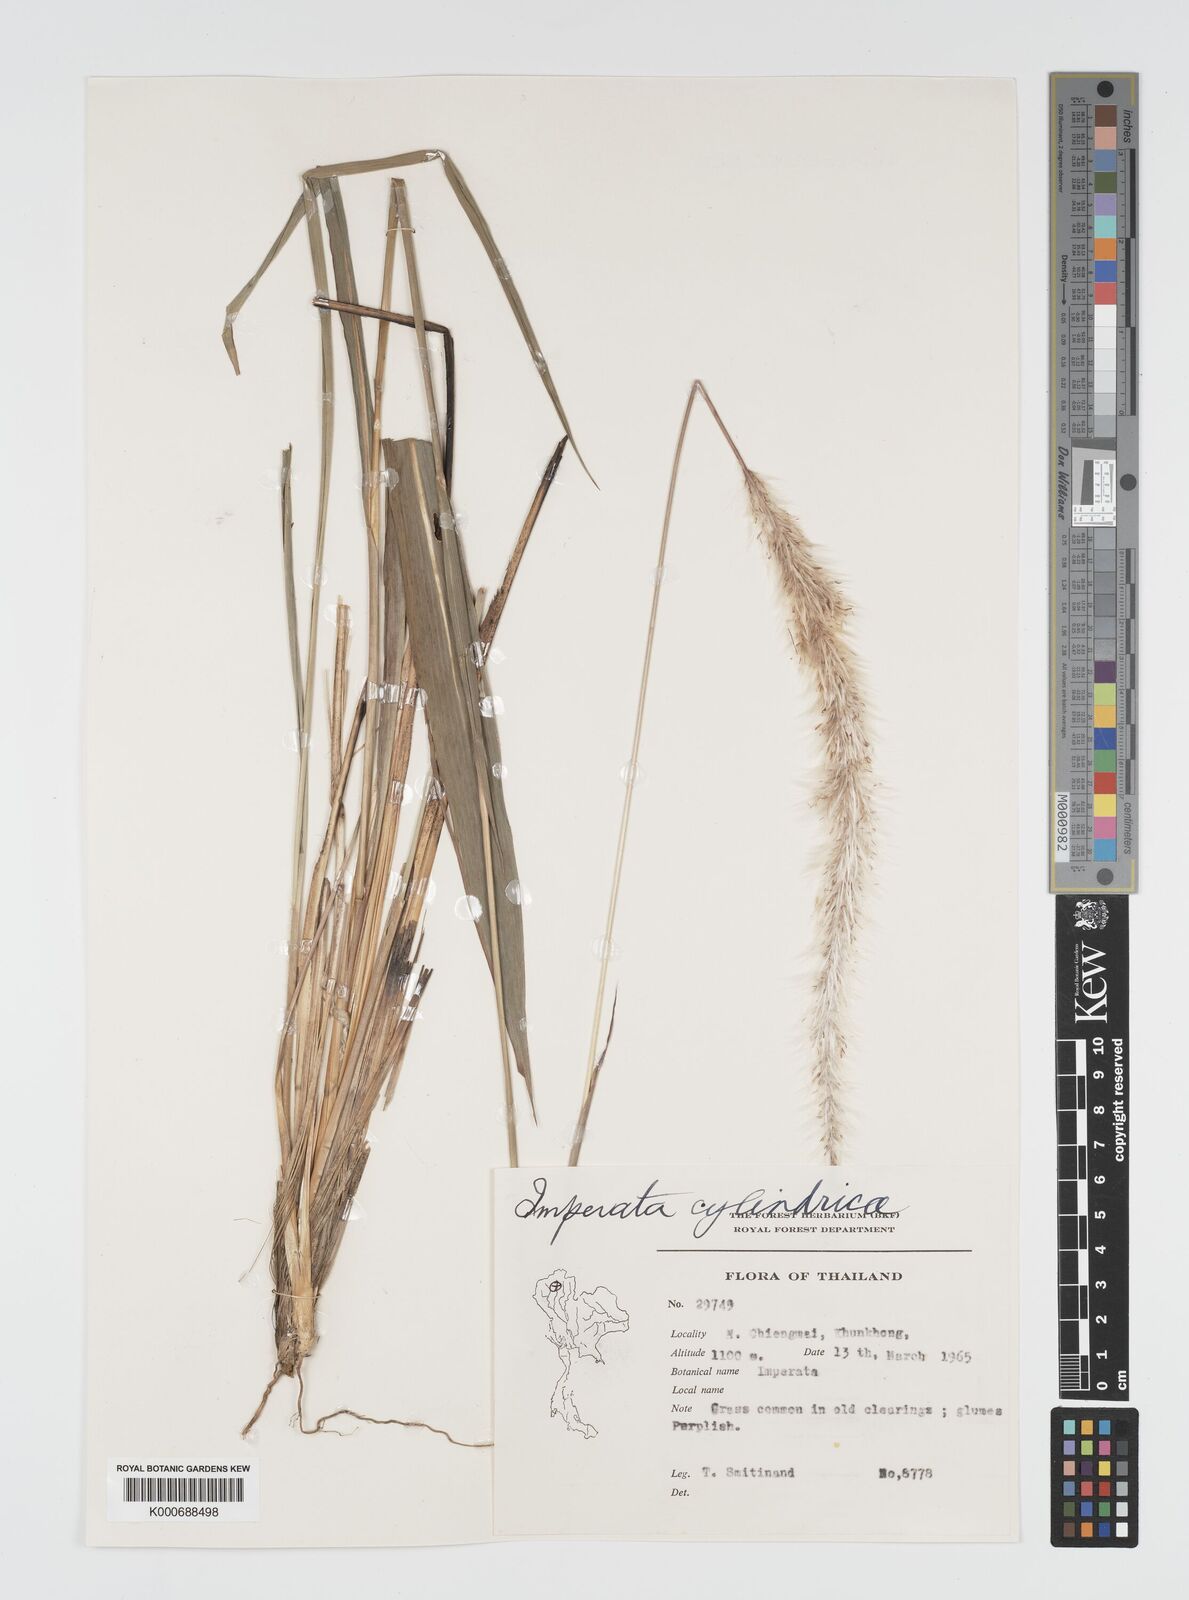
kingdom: Plantae
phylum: Tracheophyta
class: Liliopsida
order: Poales
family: Poaceae
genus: Imperata
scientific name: Imperata cylindrica
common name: Cogongrass
